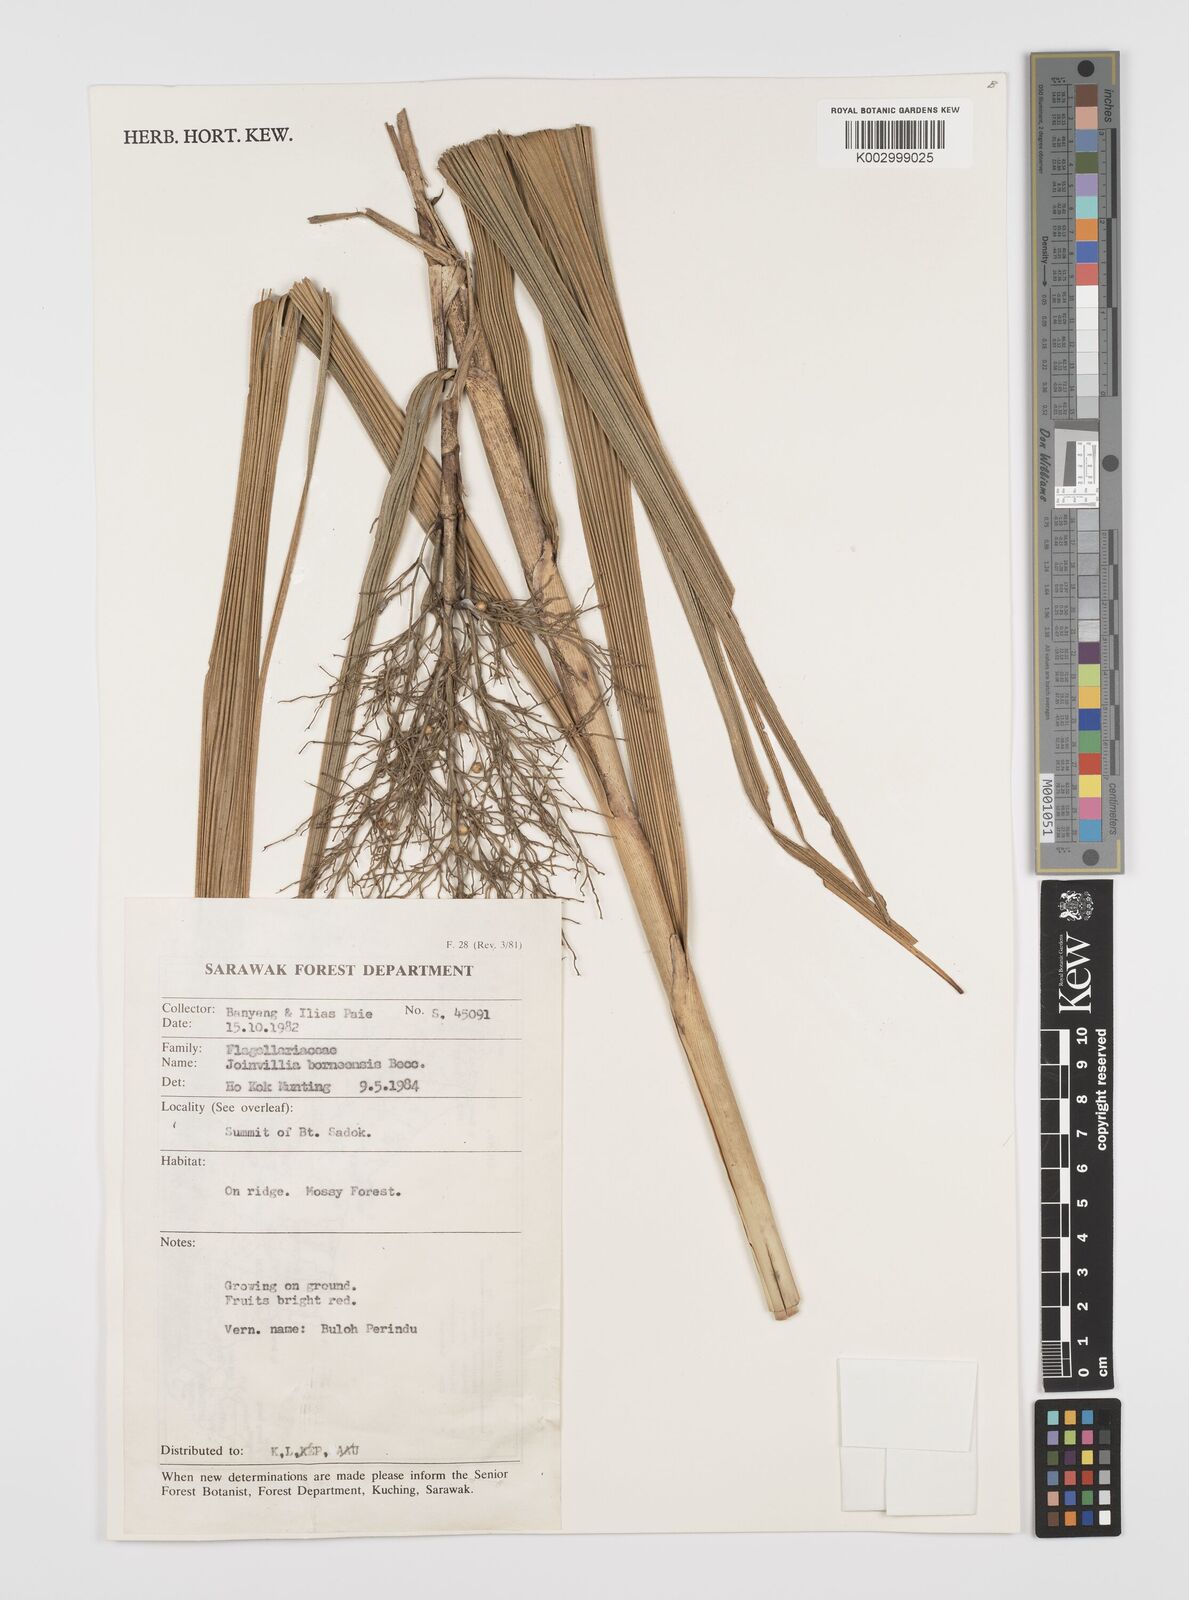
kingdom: Plantae
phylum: Tracheophyta
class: Liliopsida
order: Poales
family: Joinvilleaceae
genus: Joinvillea
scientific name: Joinvillea borneensis
